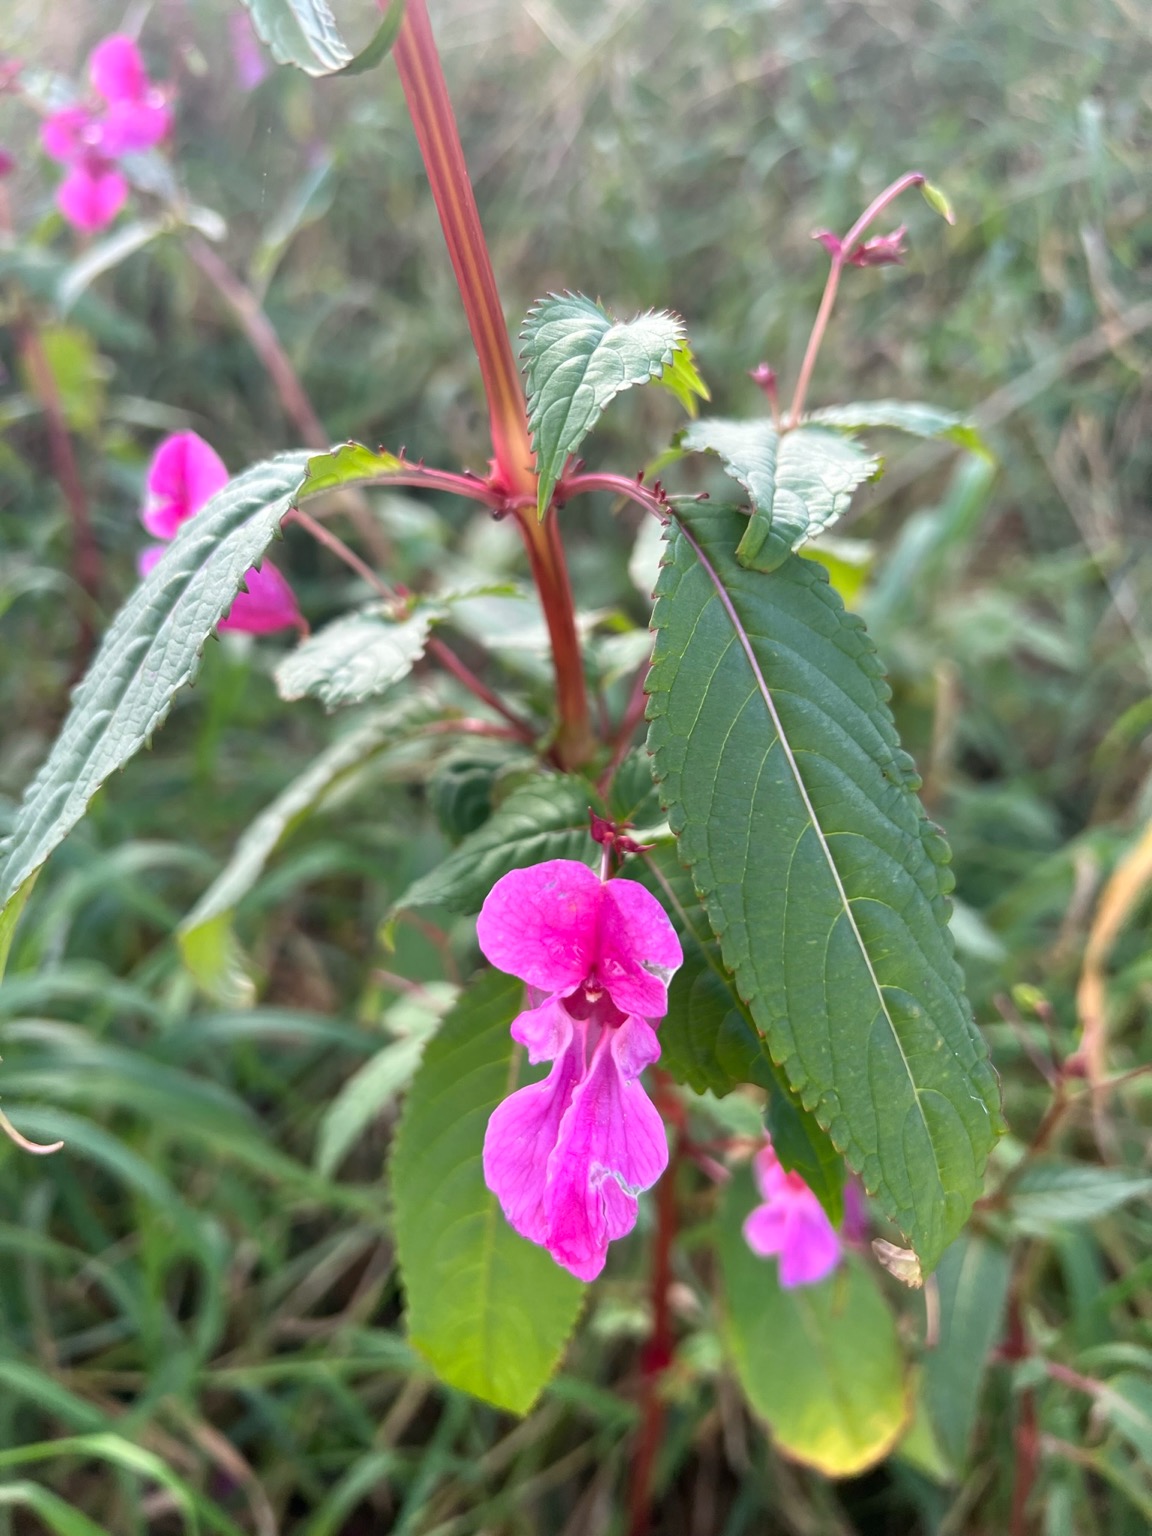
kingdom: Plantae
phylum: Tracheophyta
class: Magnoliopsida
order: Ericales
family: Balsaminaceae
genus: Impatiens
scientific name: Impatiens glandulifera
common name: Kæmpe-balsamin
